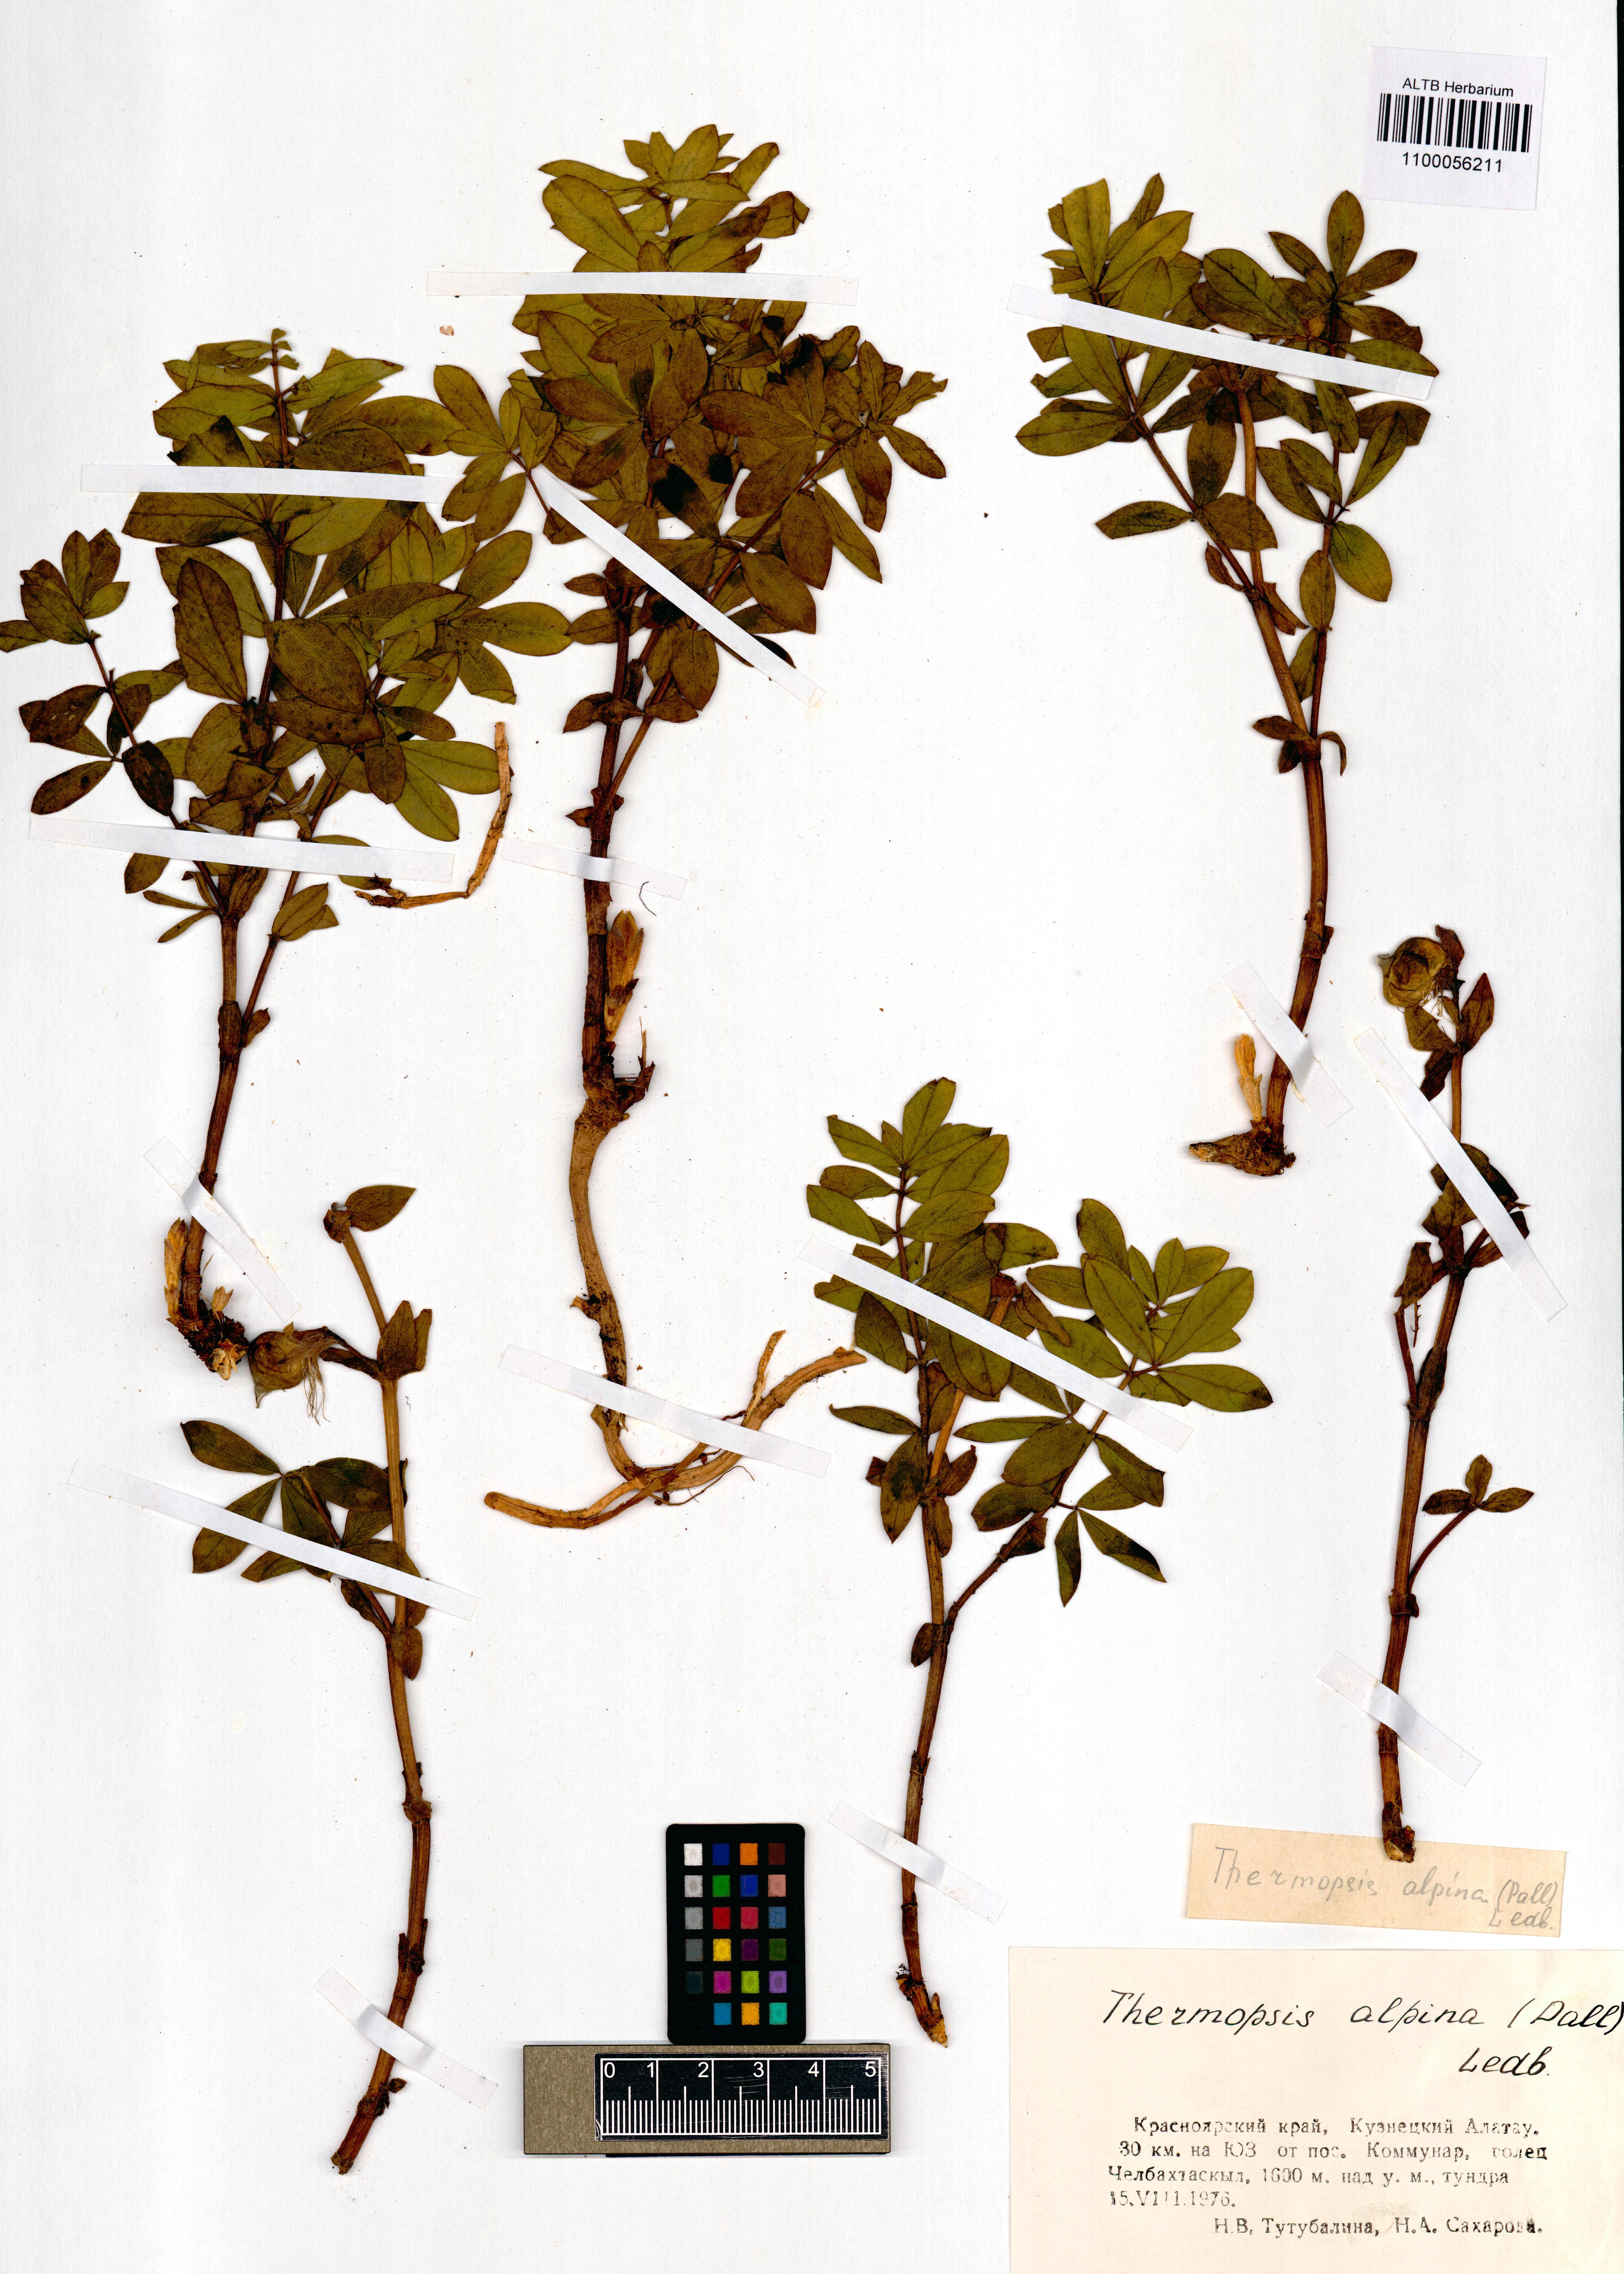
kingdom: Plantae
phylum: Tracheophyta
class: Magnoliopsida
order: Fabales
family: Fabaceae
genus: Thermopsis
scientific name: Thermopsis alpina
